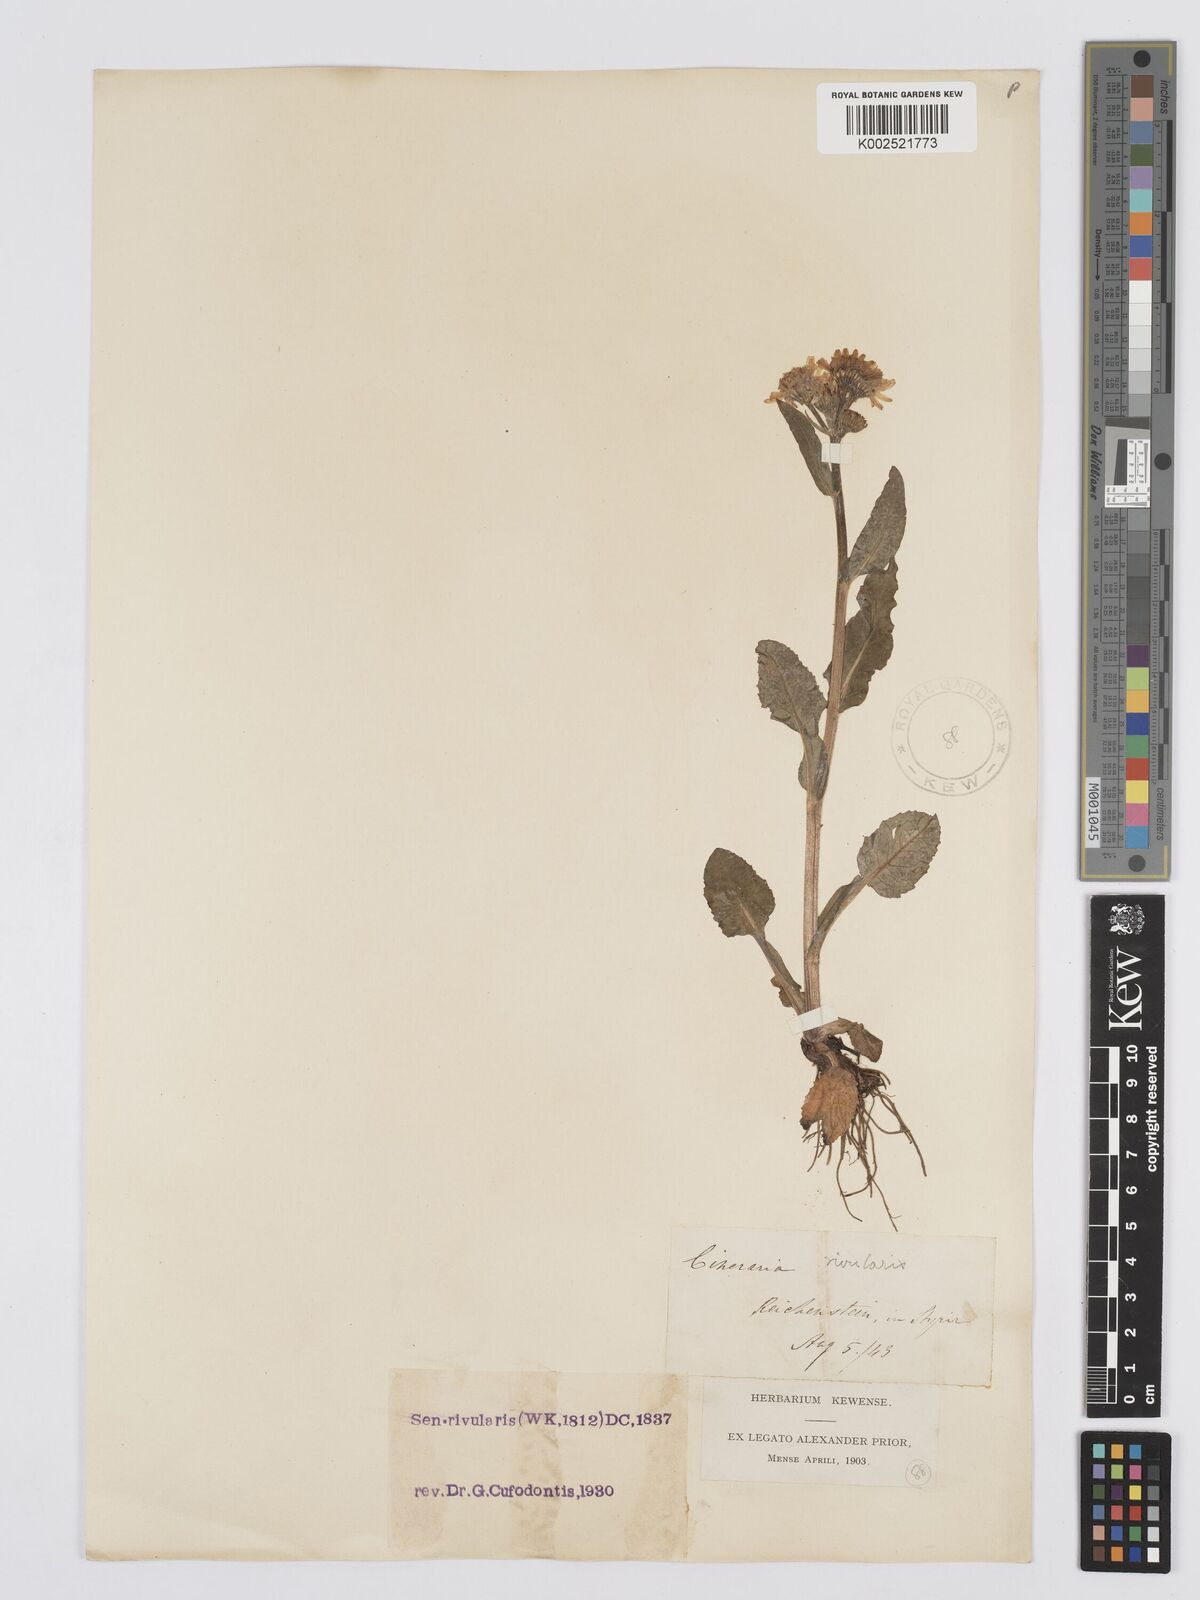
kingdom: Plantae
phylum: Tracheophyta
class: Magnoliopsida
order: Asterales
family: Asteraceae
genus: Tephroseris
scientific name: Tephroseris crispa
